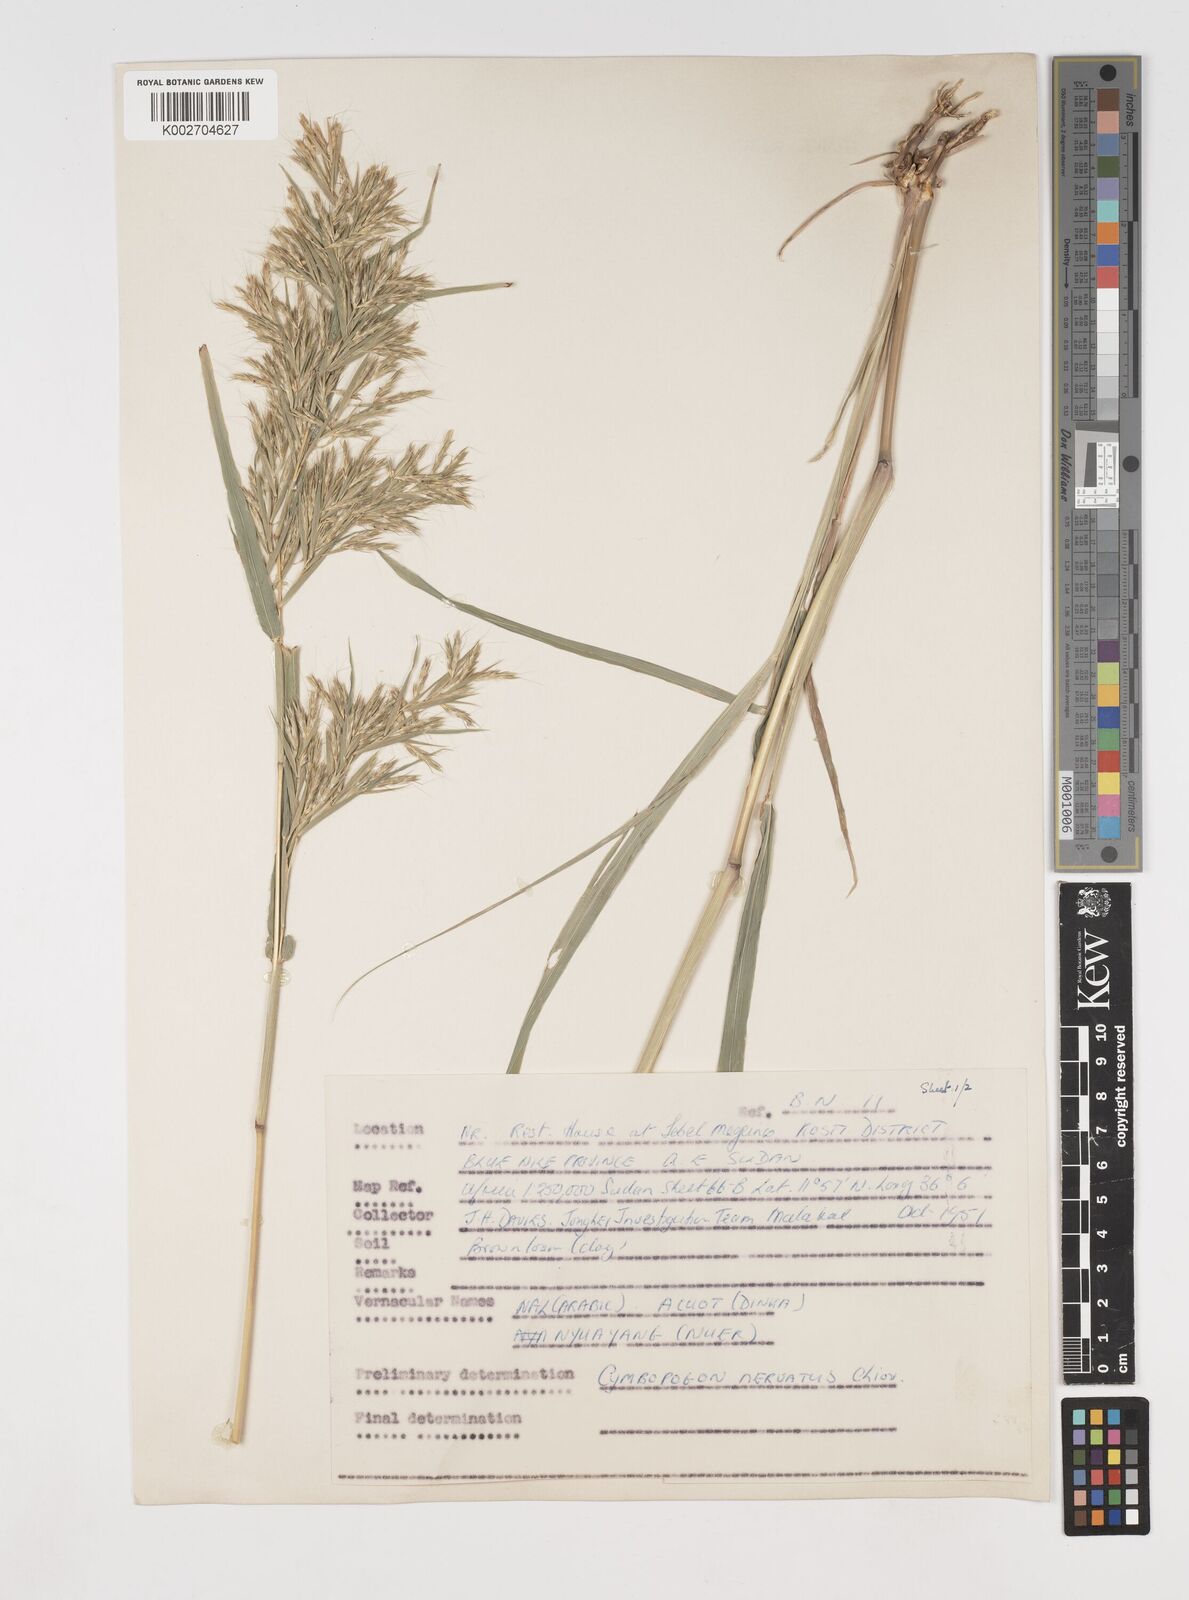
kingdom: Plantae
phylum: Tracheophyta
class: Liliopsida
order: Poales
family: Poaceae
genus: Cymbopogon
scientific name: Cymbopogon nervatus
